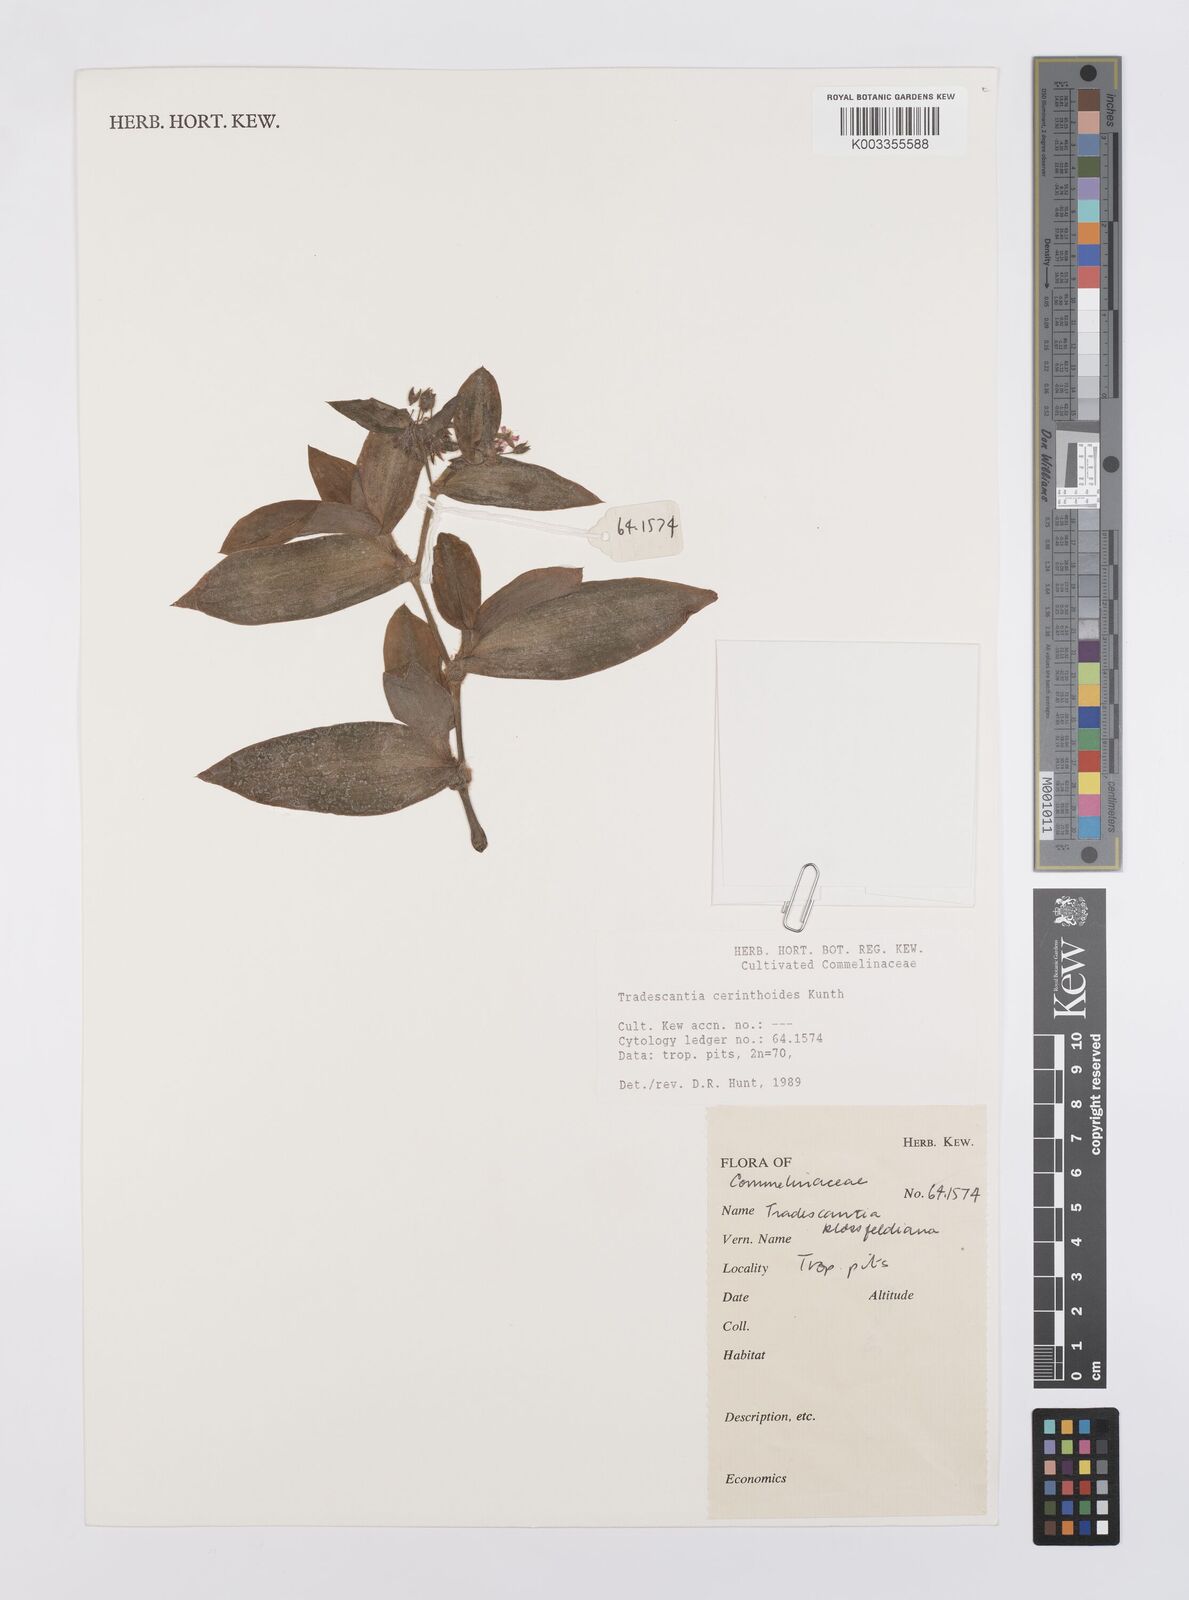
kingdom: Plantae
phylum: Tracheophyta
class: Liliopsida
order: Commelinales
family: Commelinaceae
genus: Tradescantia
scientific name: Tradescantia cerinthoides
